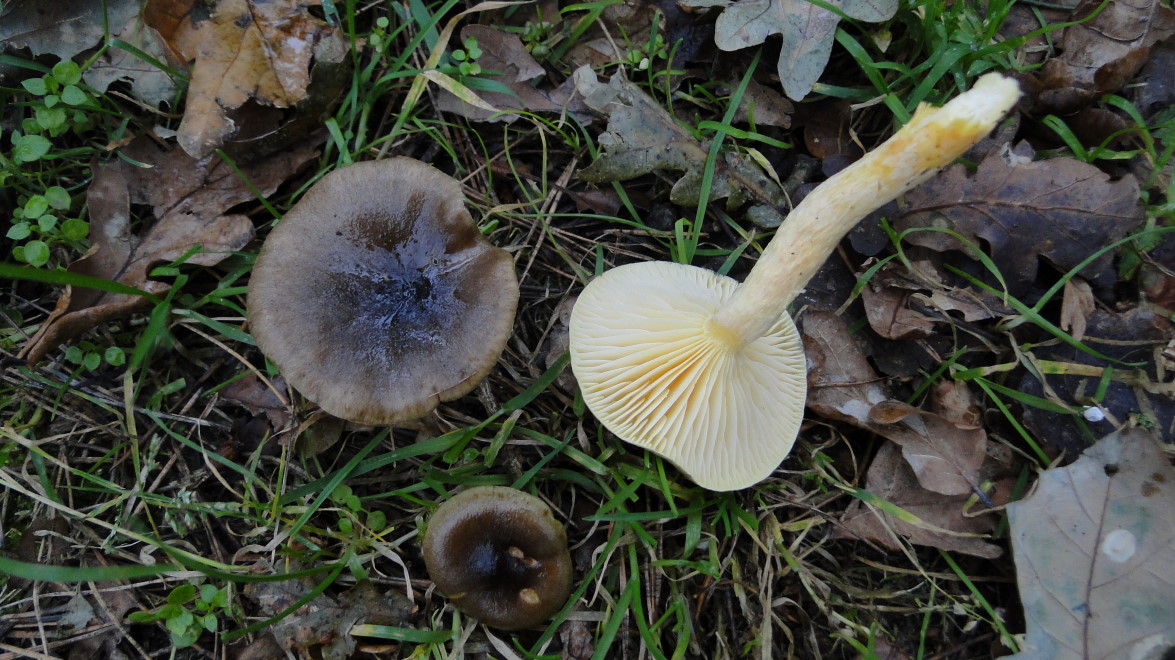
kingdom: Fungi
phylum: Basidiomycota
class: Agaricomycetes
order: Agaricales
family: Hygrophoraceae
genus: Hygrophorus
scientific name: Hygrophorus hypothejus
